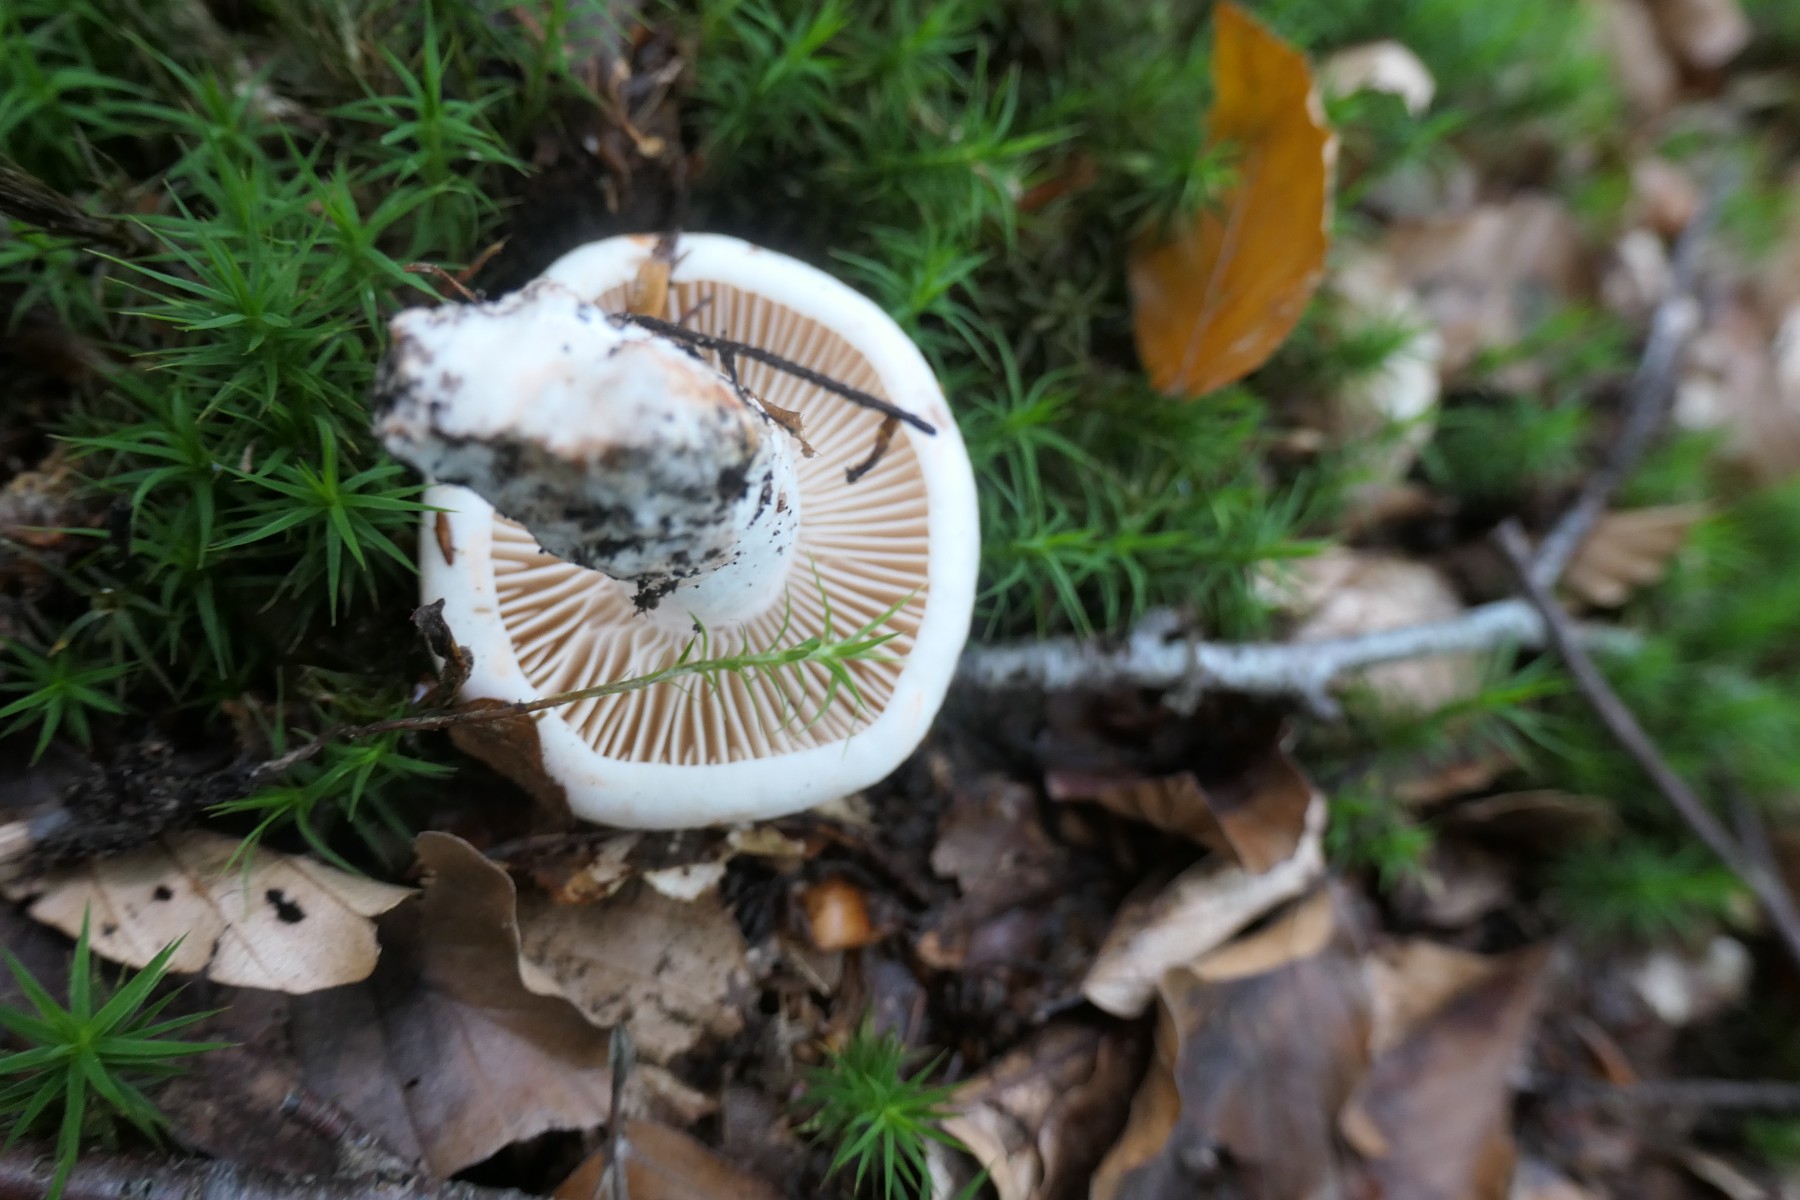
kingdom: Fungi
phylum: Basidiomycota
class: Agaricomycetes
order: Russulales
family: Russulaceae
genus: Russula
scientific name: Russula adusta
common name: sværtende skørhat
